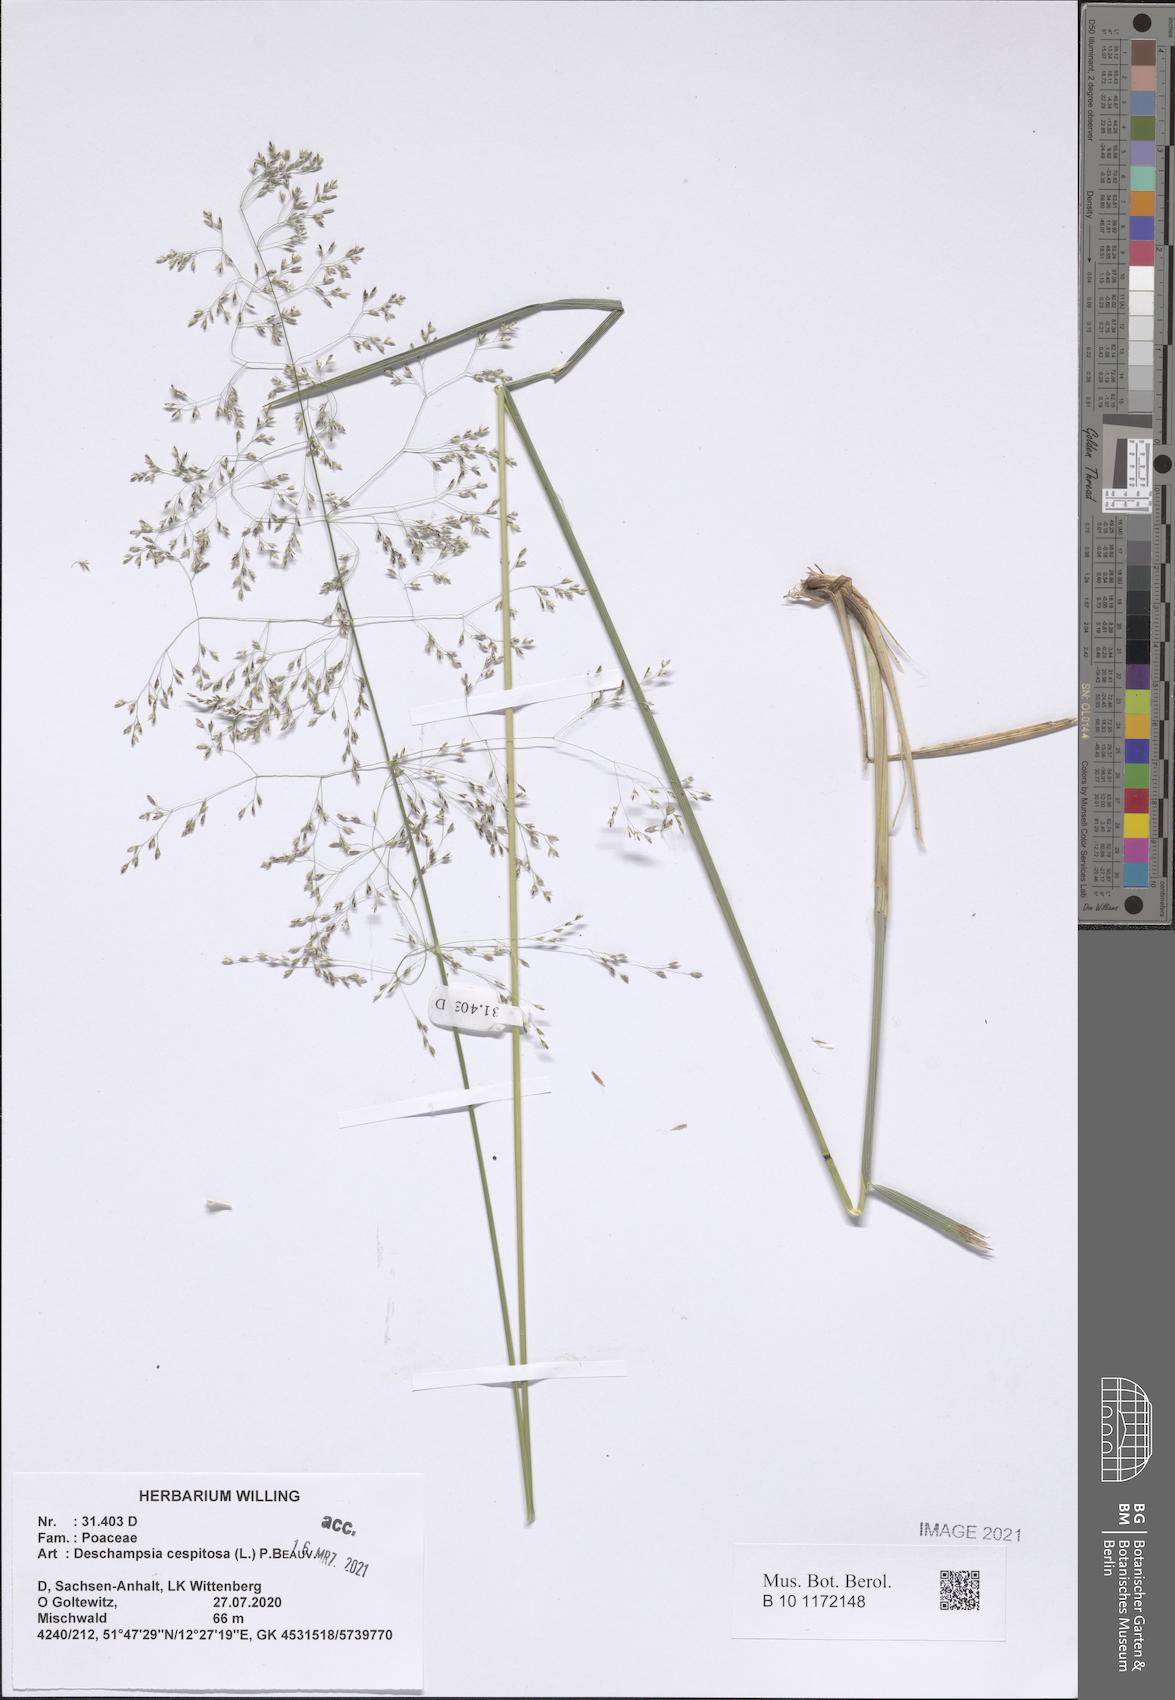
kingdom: Plantae
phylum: Tracheophyta
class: Liliopsida
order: Poales
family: Poaceae
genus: Deschampsia
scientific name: Deschampsia cespitosa
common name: Tufted hair-grass
